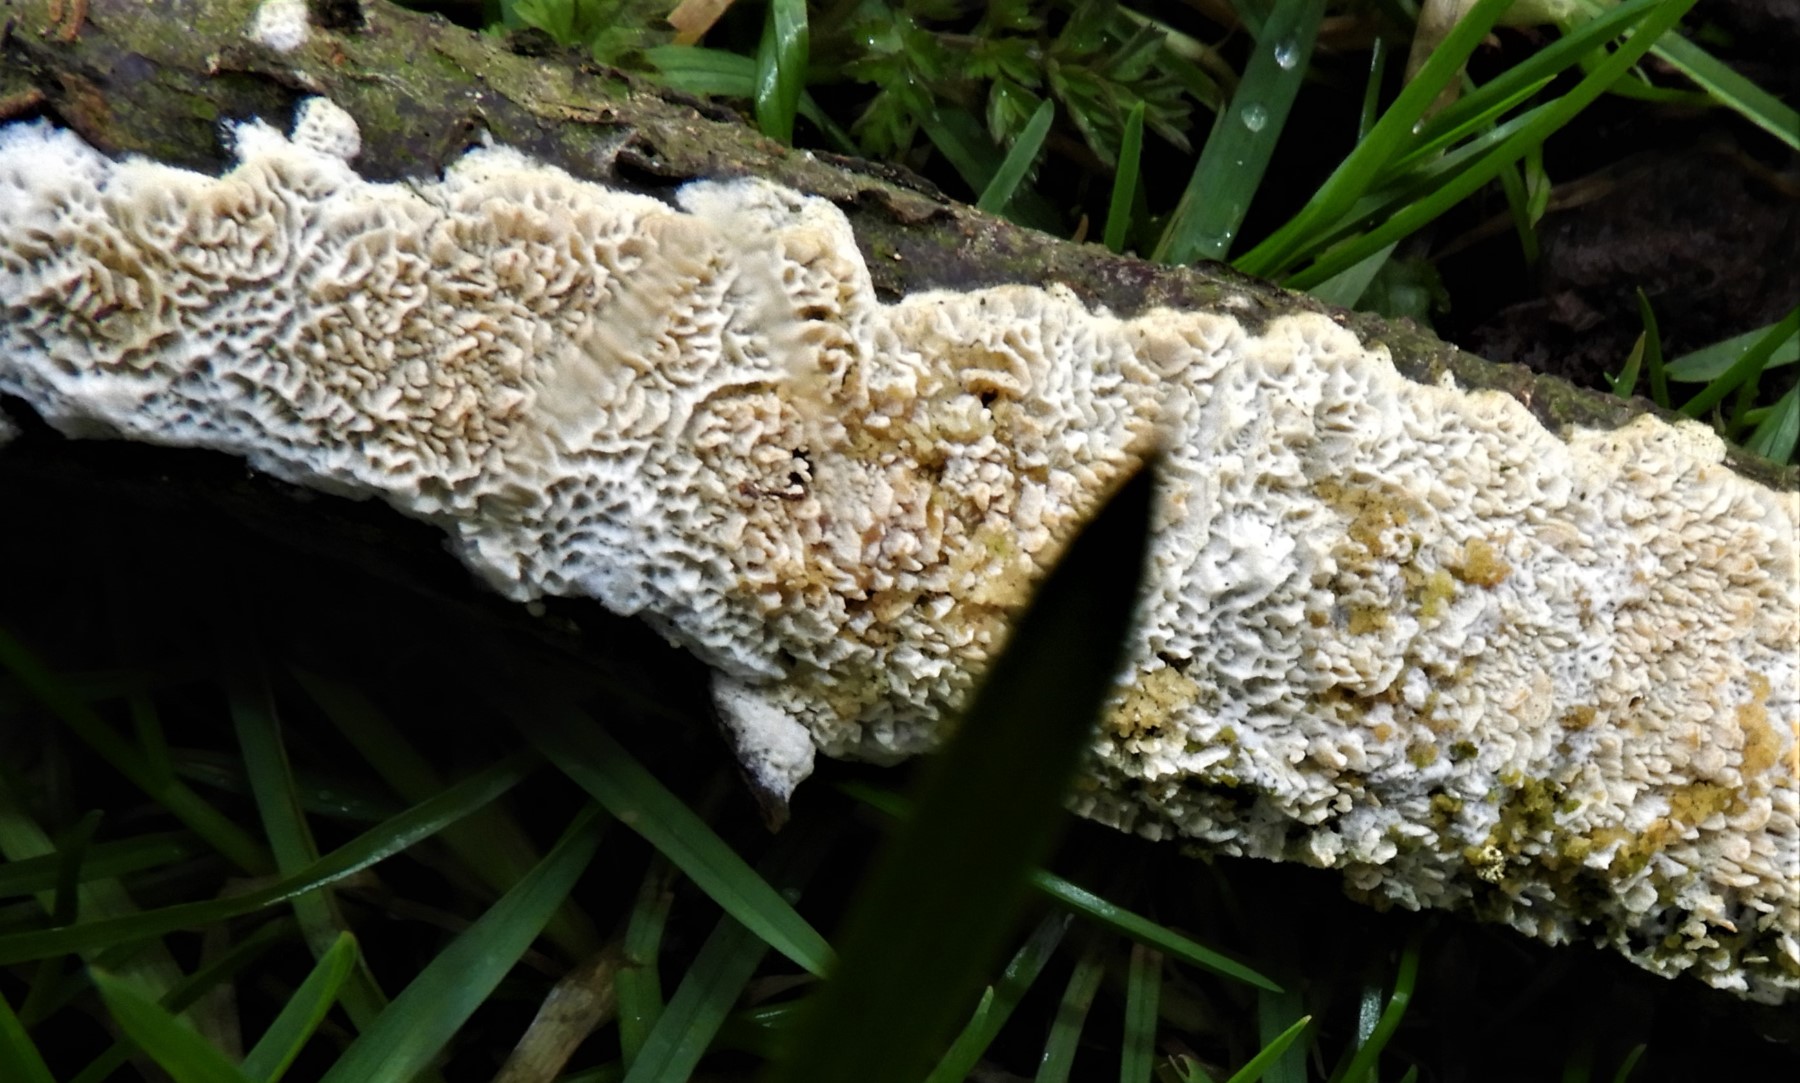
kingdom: Fungi
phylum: Basidiomycota
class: Agaricomycetes
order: Hymenochaetales
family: Schizoporaceae
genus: Xylodon
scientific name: Xylodon
